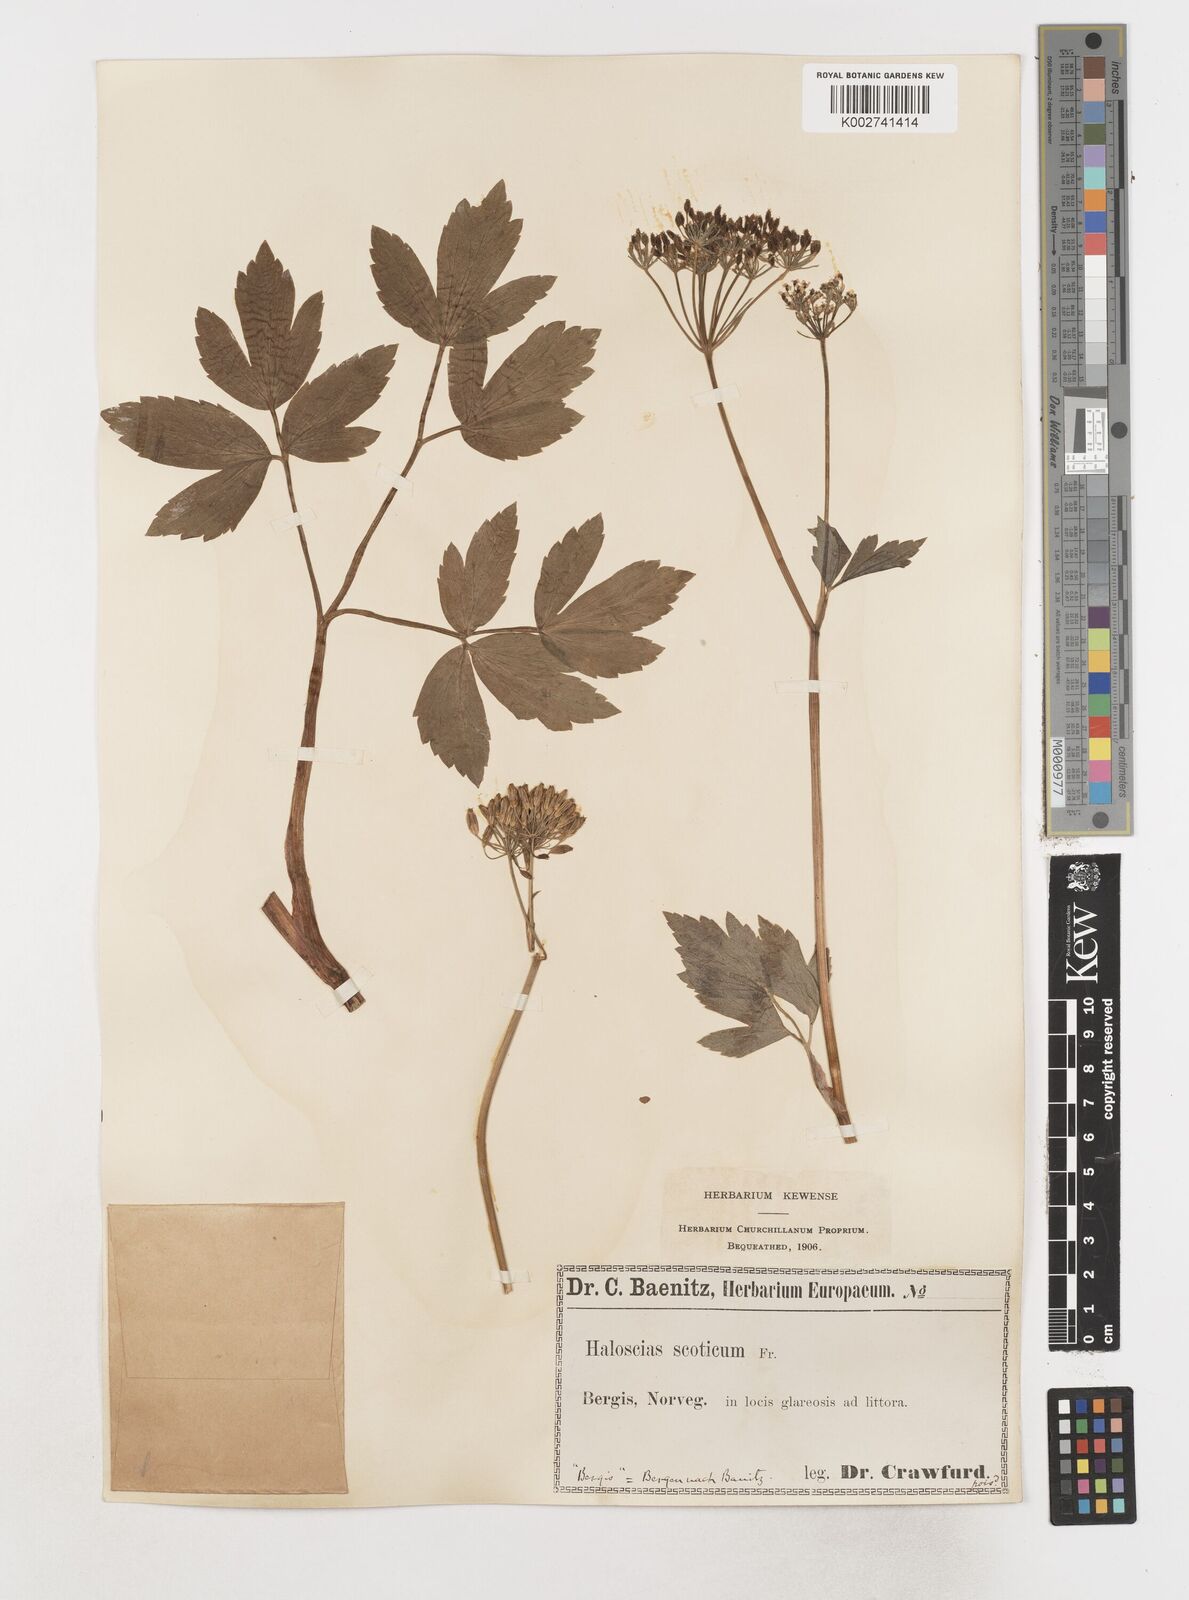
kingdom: Plantae
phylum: Tracheophyta
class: Magnoliopsida
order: Apiales
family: Apiaceae
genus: Ligusticum
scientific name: Ligusticum scothicum
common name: Beach lovage
